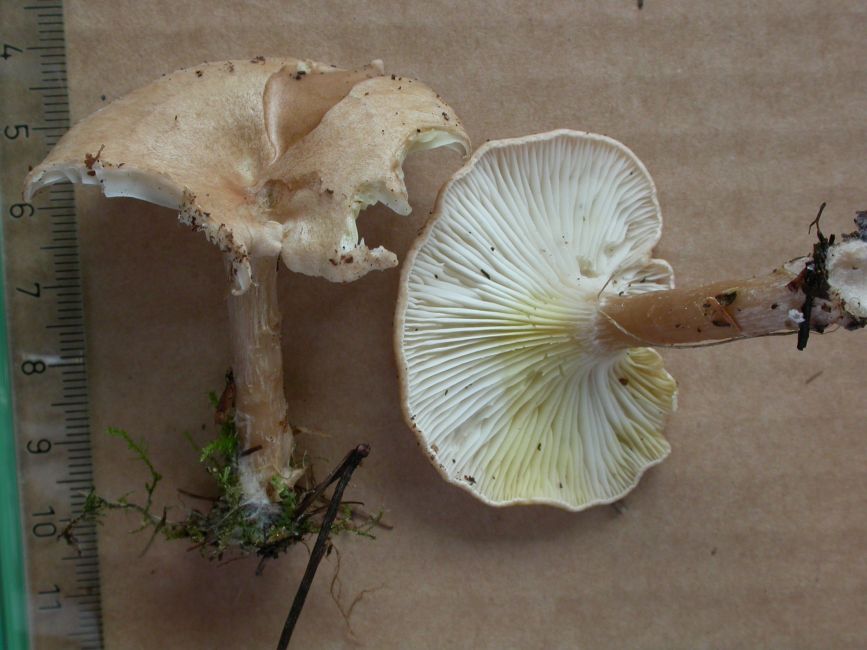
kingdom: Fungi
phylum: Basidiomycota
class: Agaricomycetes
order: Agaricales
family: Tricholomataceae
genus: Clitocybe
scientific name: Clitocybe costata
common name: brunstokket tragthat
